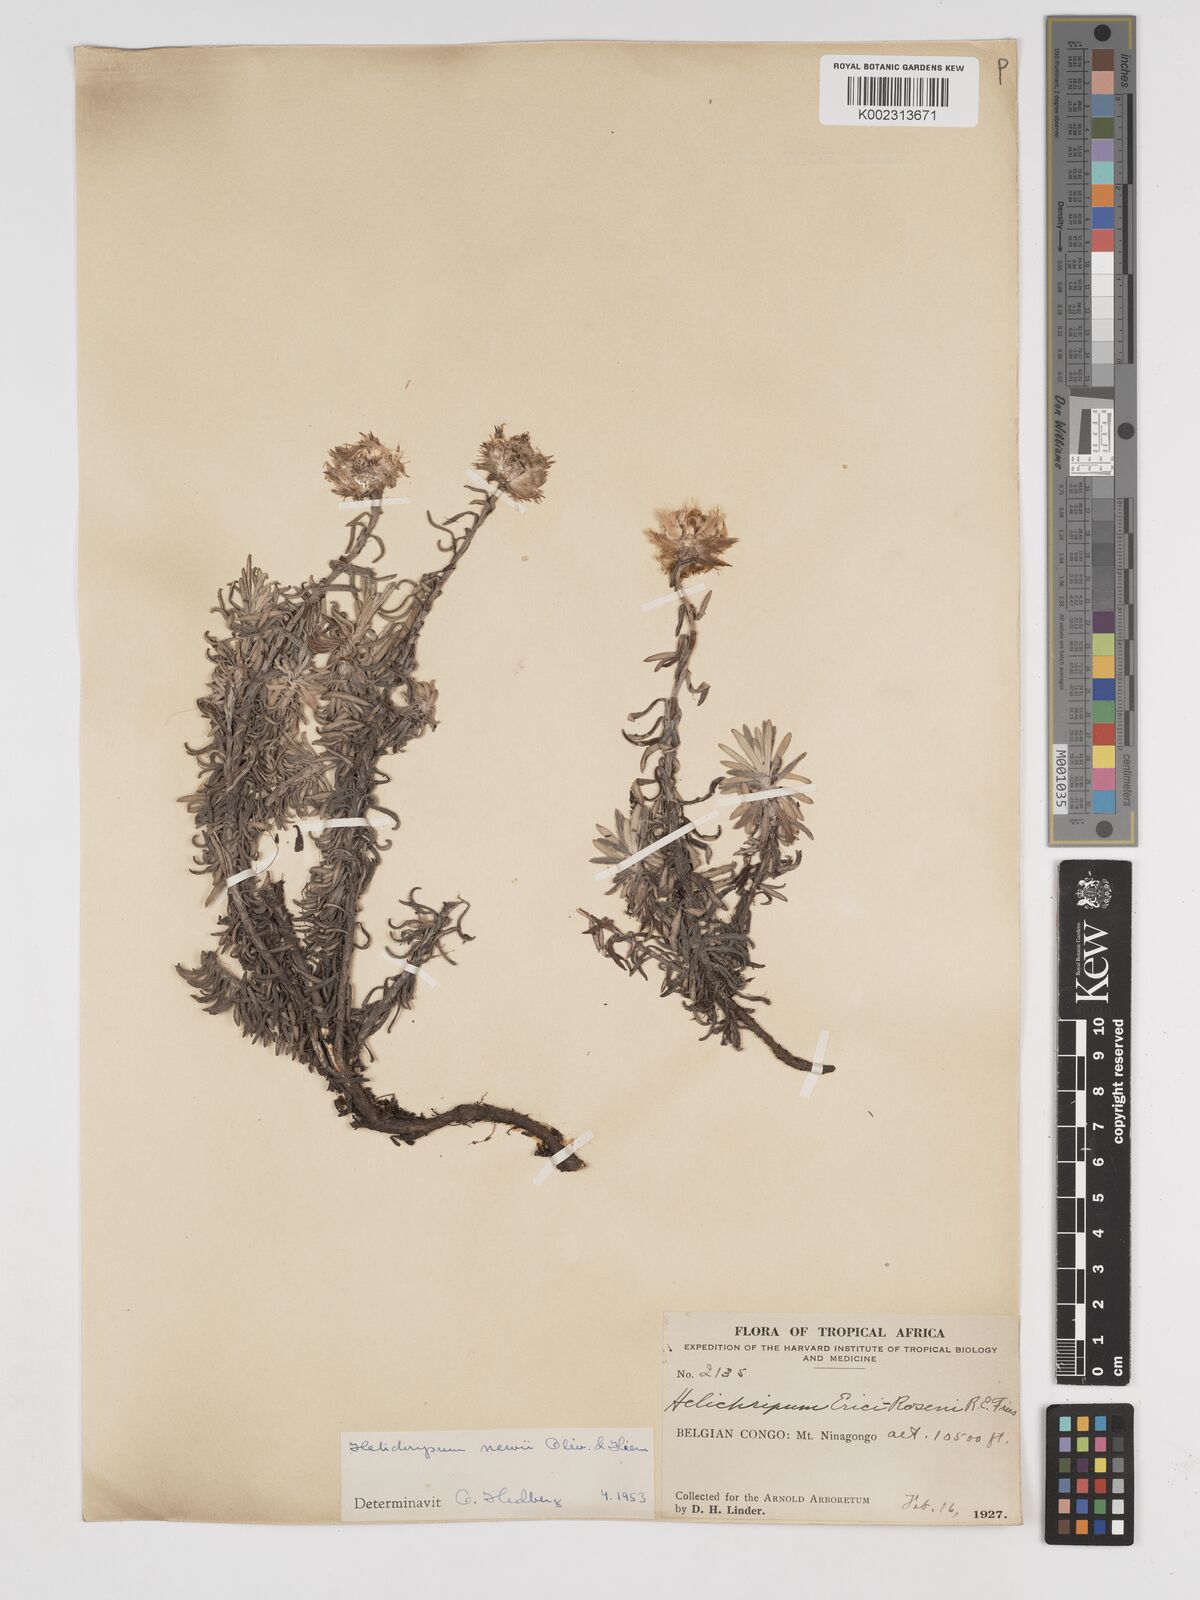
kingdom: Plantae
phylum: Tracheophyta
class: Magnoliopsida
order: Asterales
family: Asteraceae
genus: Helichrysum
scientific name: Helichrysum newii
